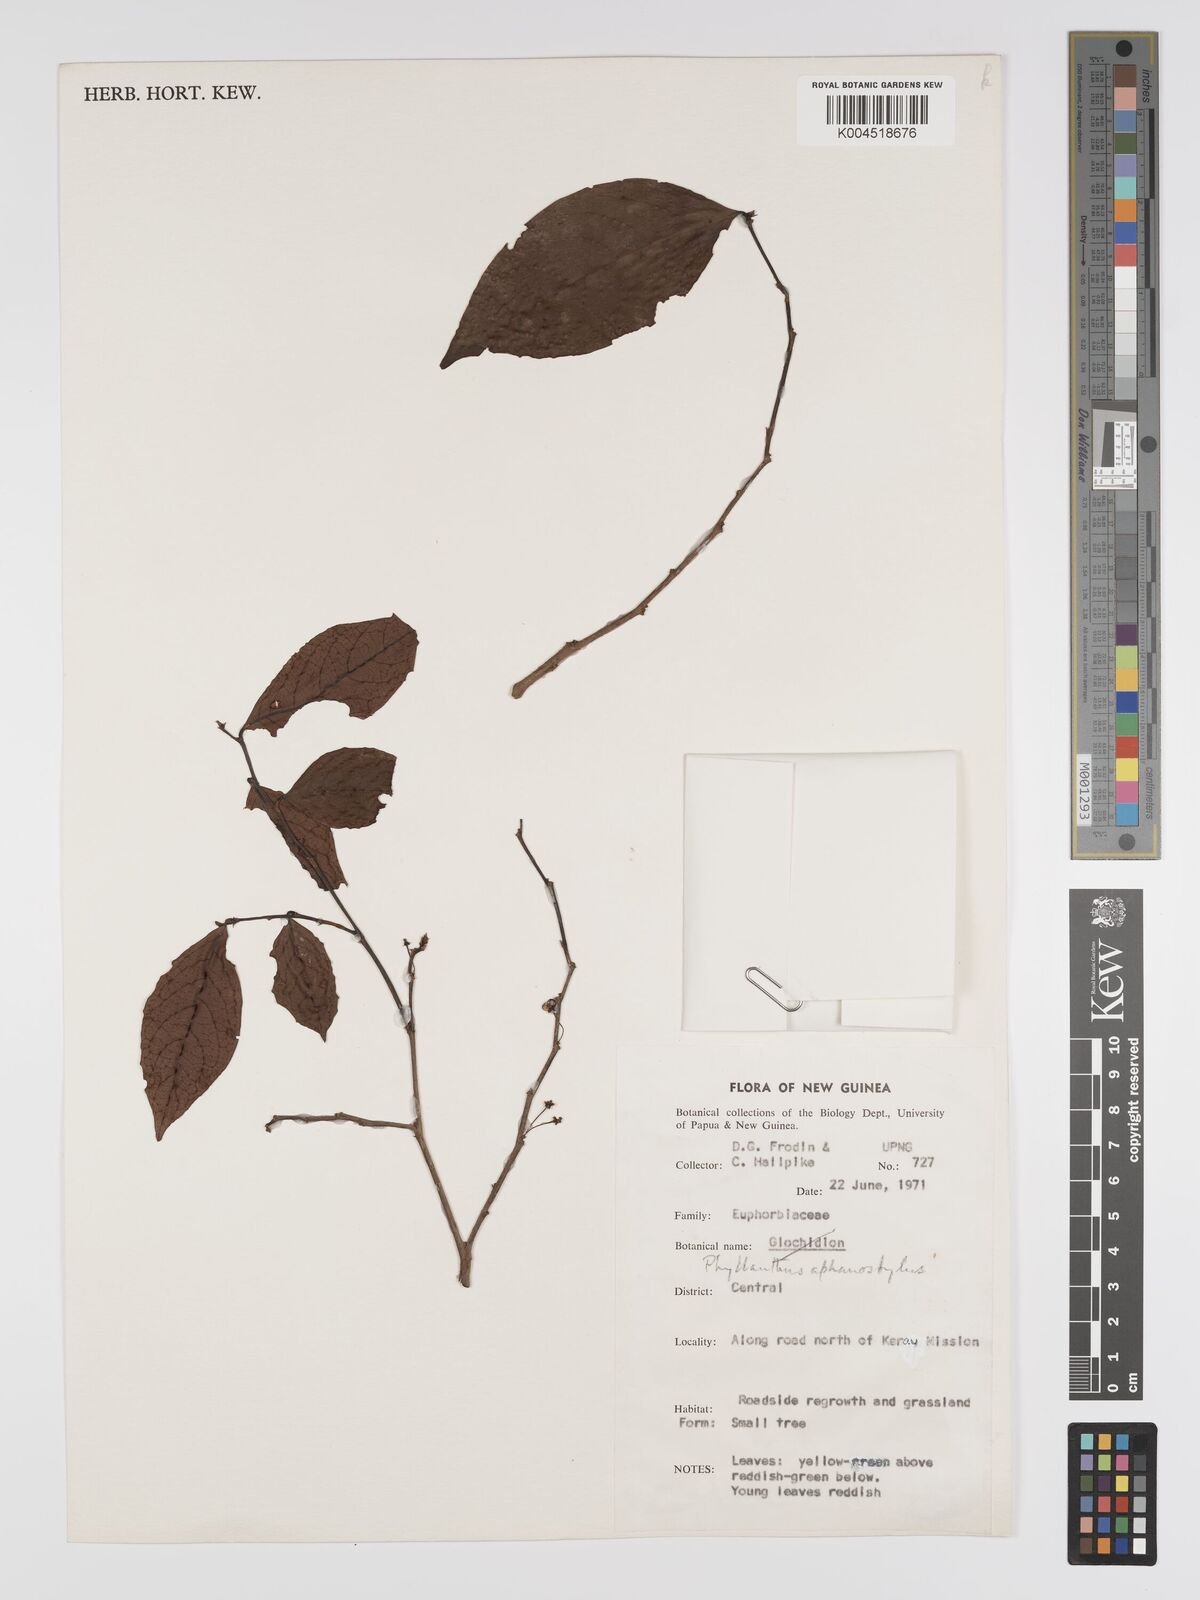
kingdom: Plantae
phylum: Tracheophyta
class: Magnoliopsida
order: Malpighiales
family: Phyllanthaceae
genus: Phyllanthus
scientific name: Phyllanthus aphanostylus
